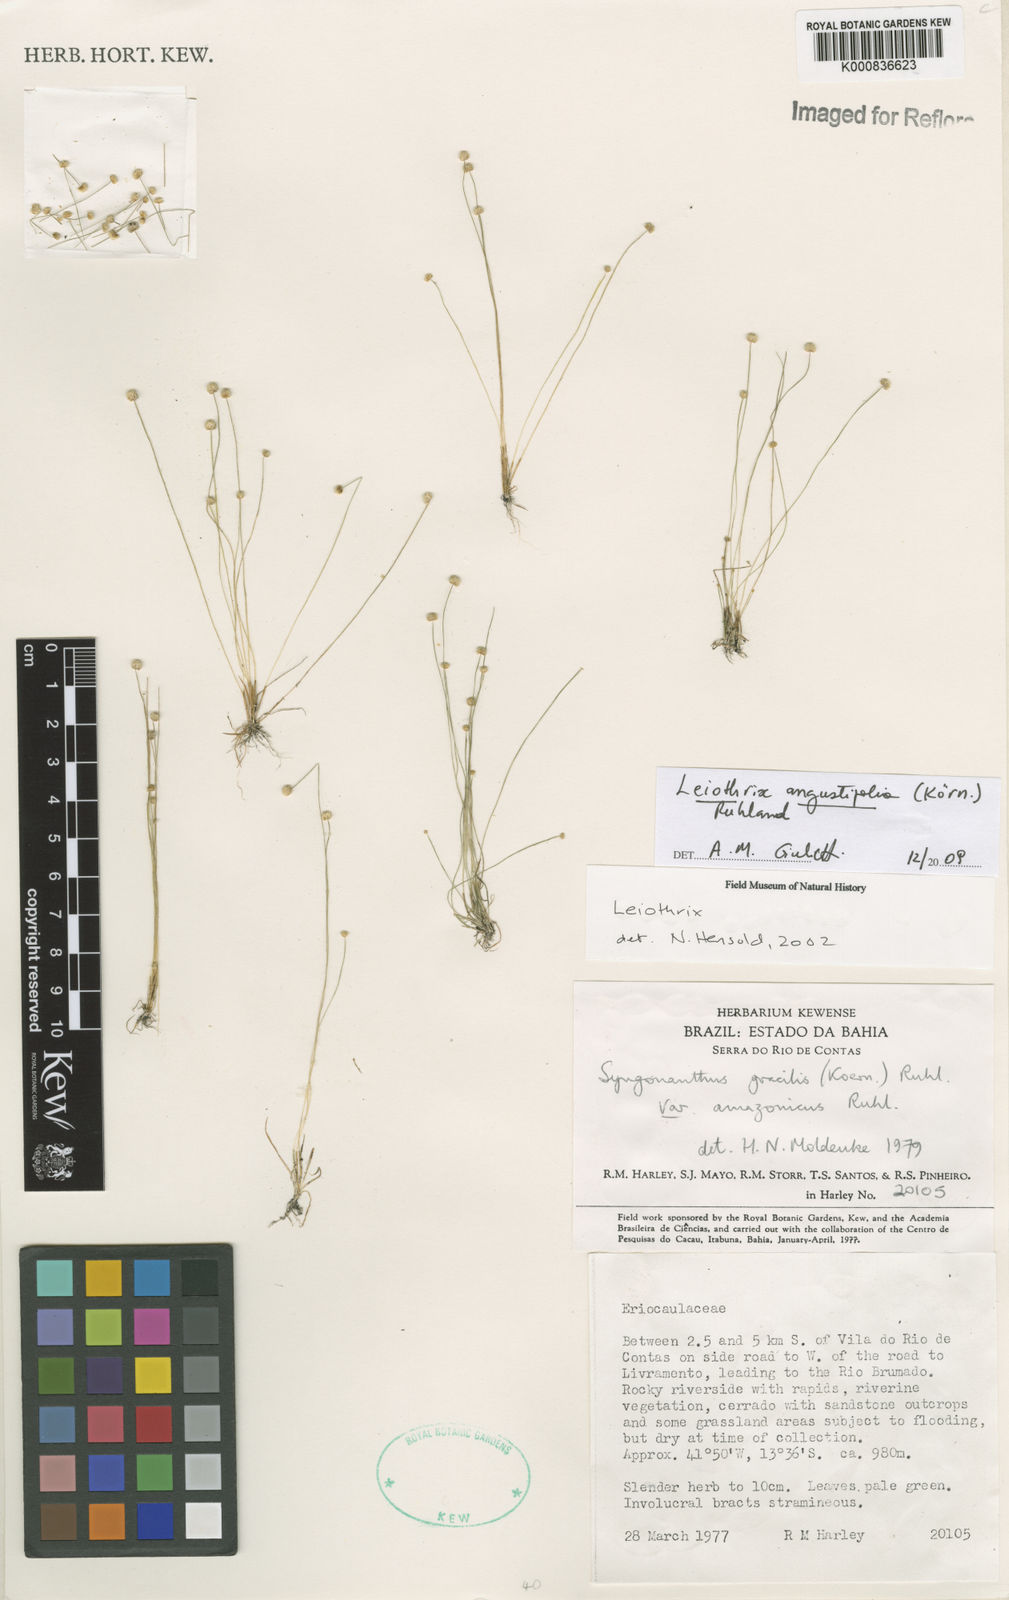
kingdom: Plantae
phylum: Tracheophyta
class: Liliopsida
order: Poales
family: Eriocaulaceae
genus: Leiothrix
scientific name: Leiothrix angustifolia
